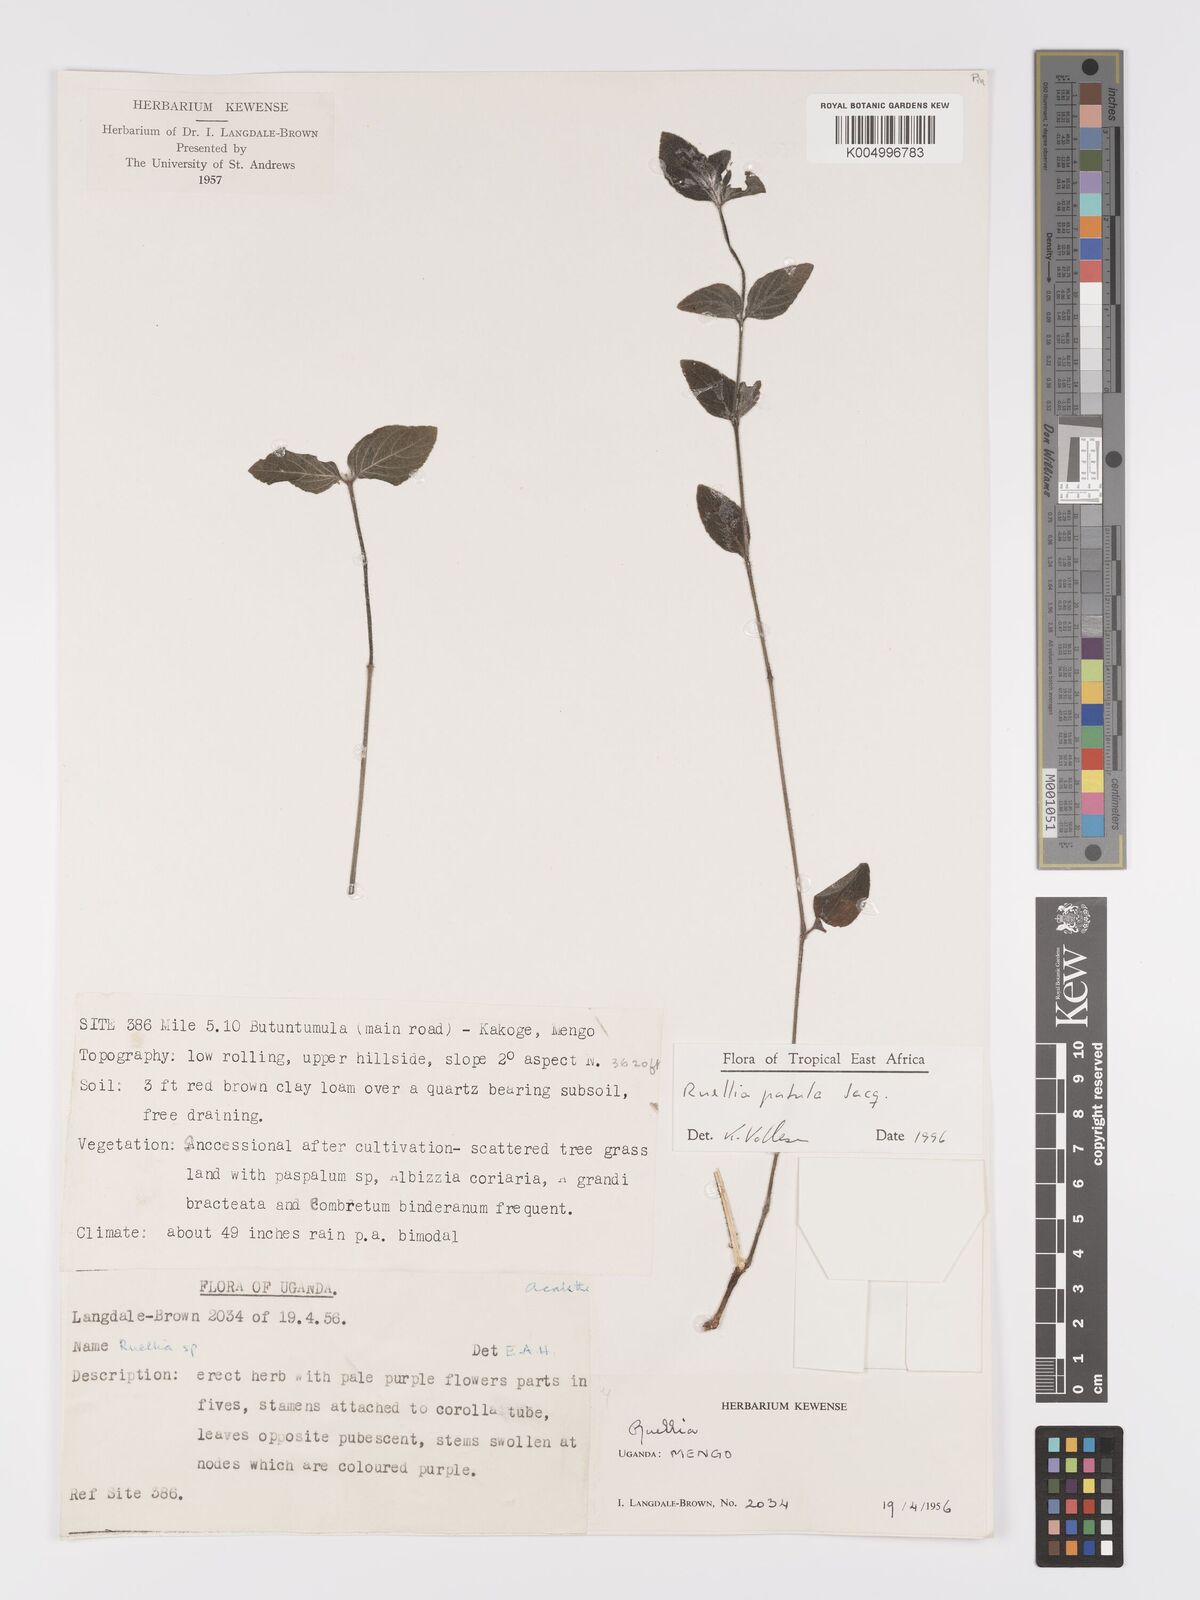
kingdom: Plantae
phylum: Tracheophyta
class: Magnoliopsida
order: Lamiales
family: Acanthaceae
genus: Ruellia
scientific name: Ruellia patula
